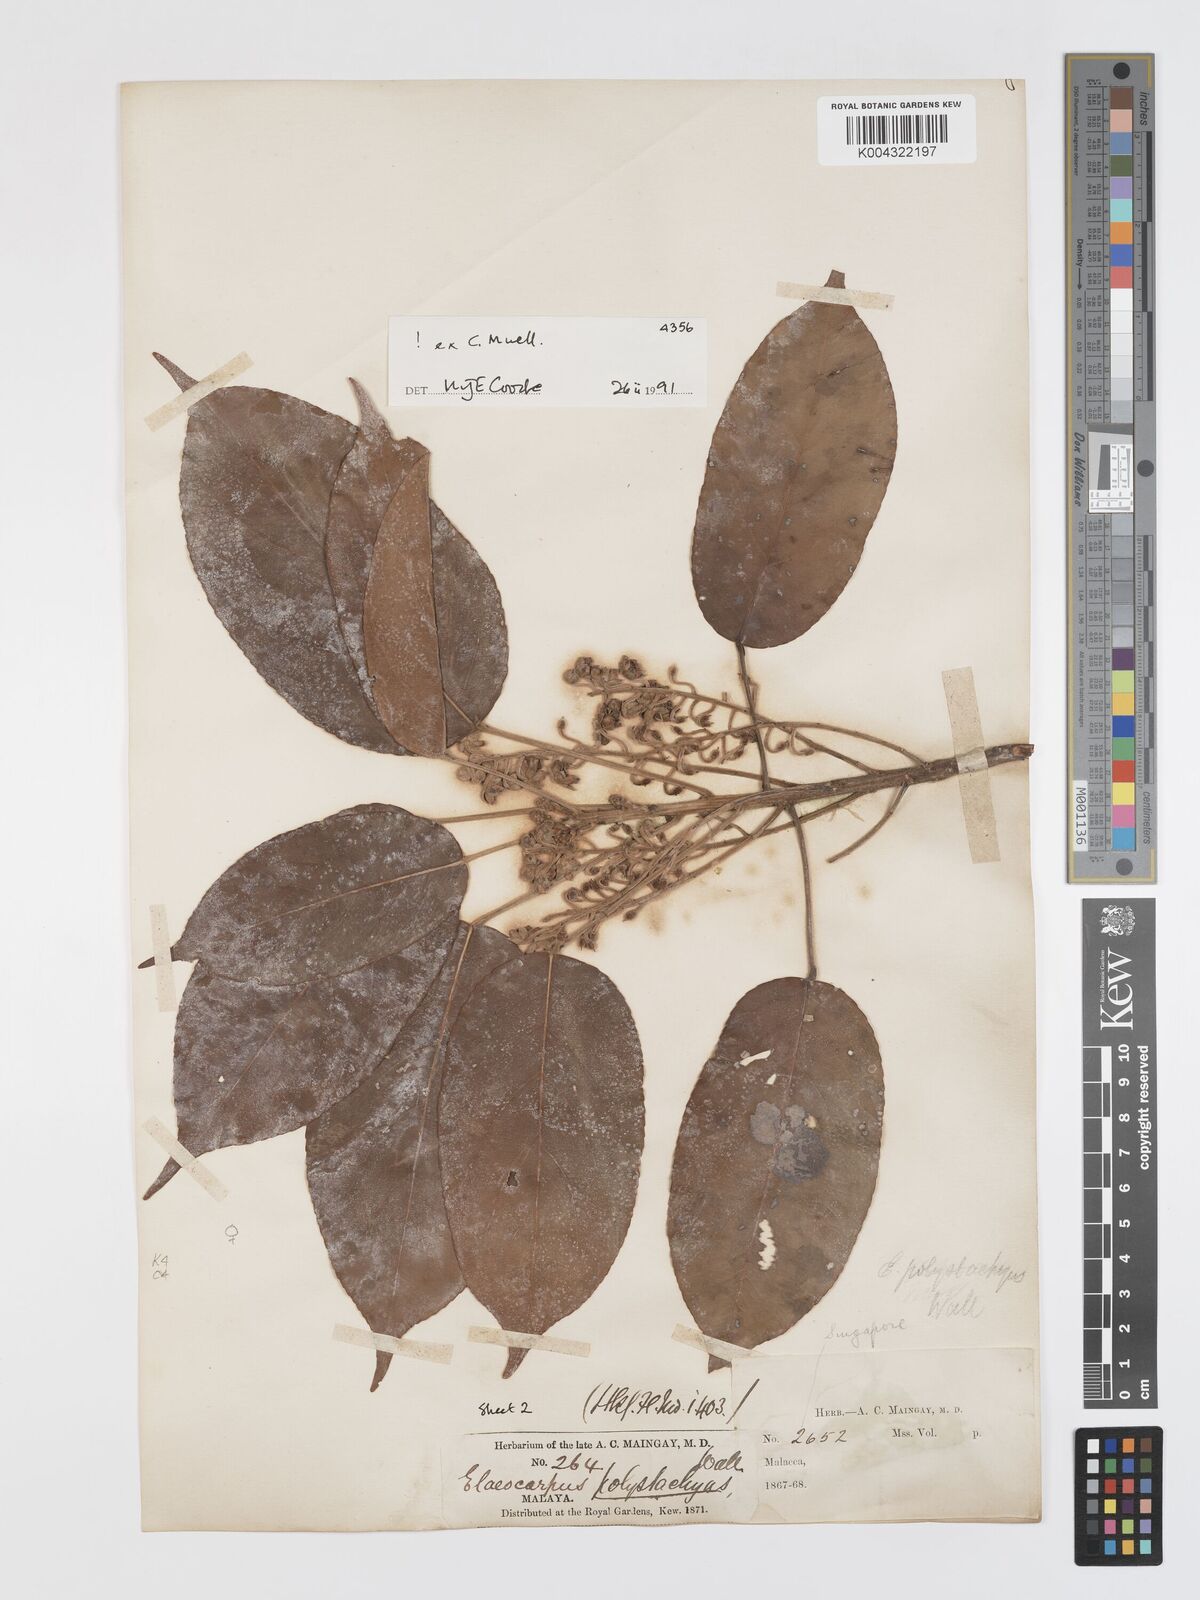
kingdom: Plantae
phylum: Tracheophyta
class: Magnoliopsida
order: Oxalidales
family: Elaeocarpaceae
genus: Elaeocarpus
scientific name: Elaeocarpus polystachyus
